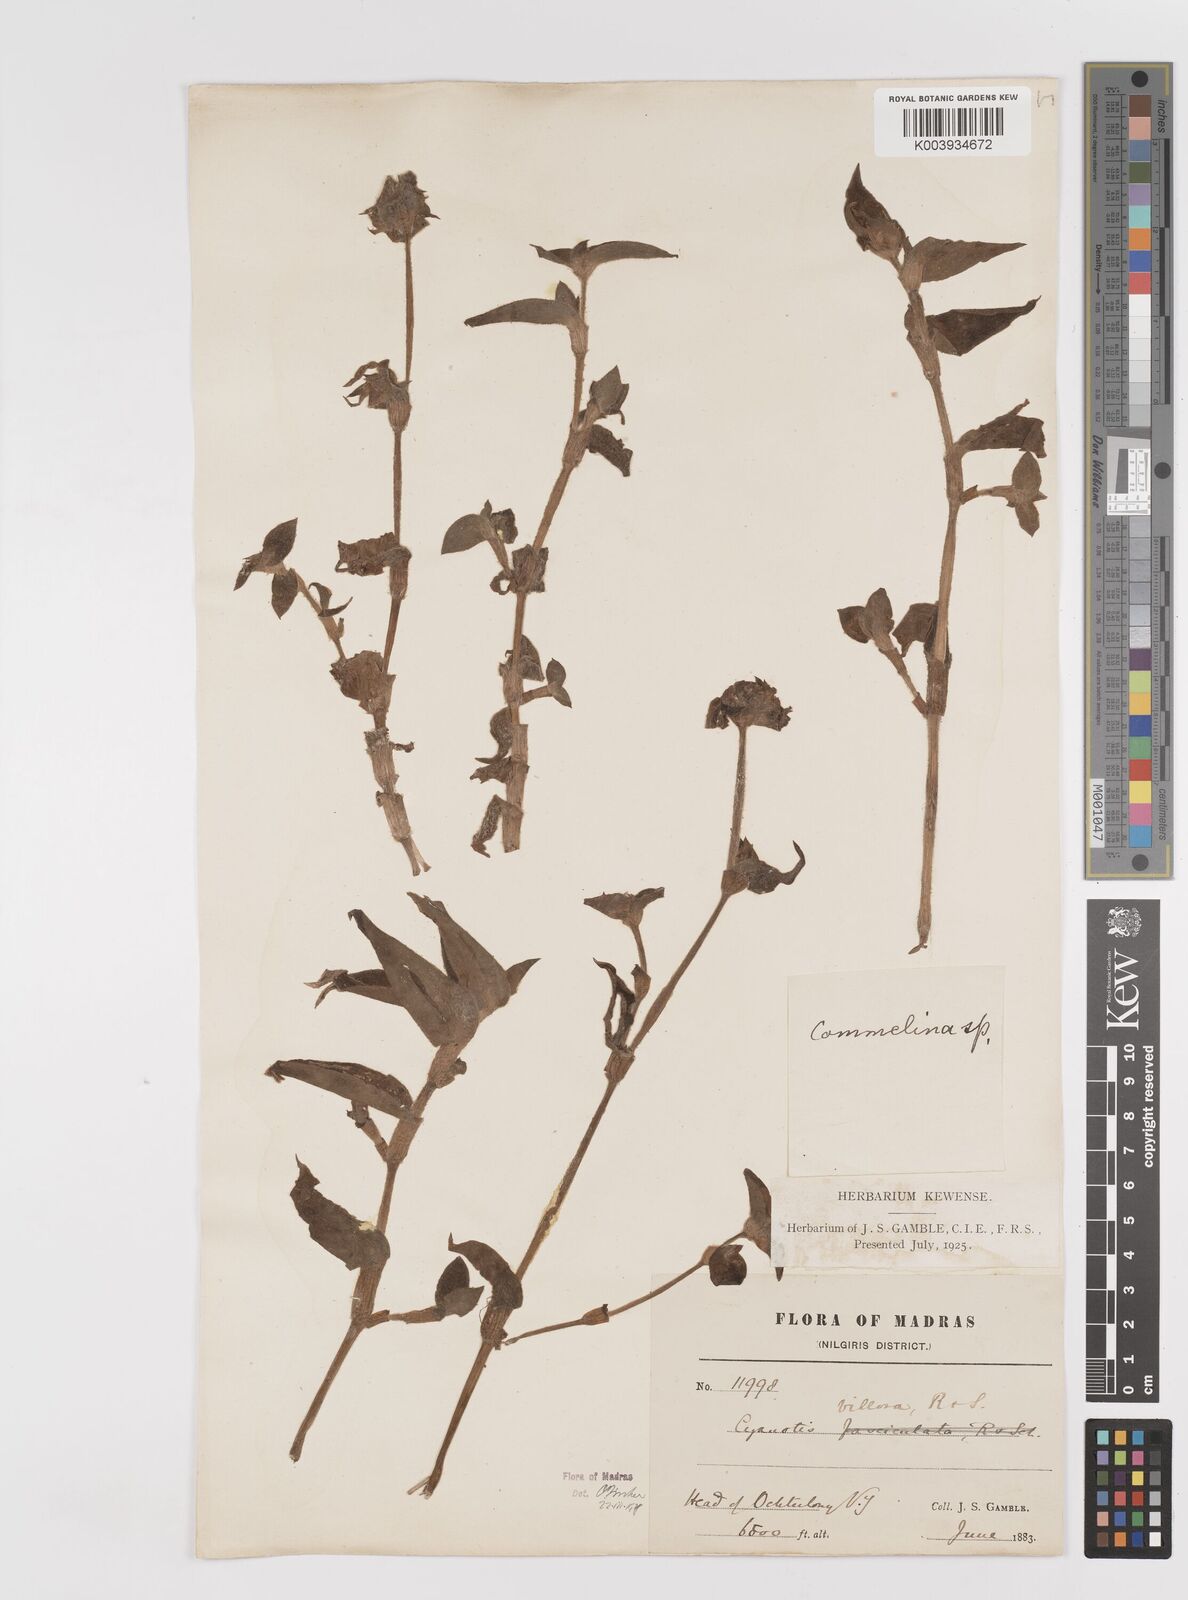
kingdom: Plantae
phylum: Tracheophyta
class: Liliopsida
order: Commelinales
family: Commelinaceae
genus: Cyanotis
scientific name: Cyanotis villosa
